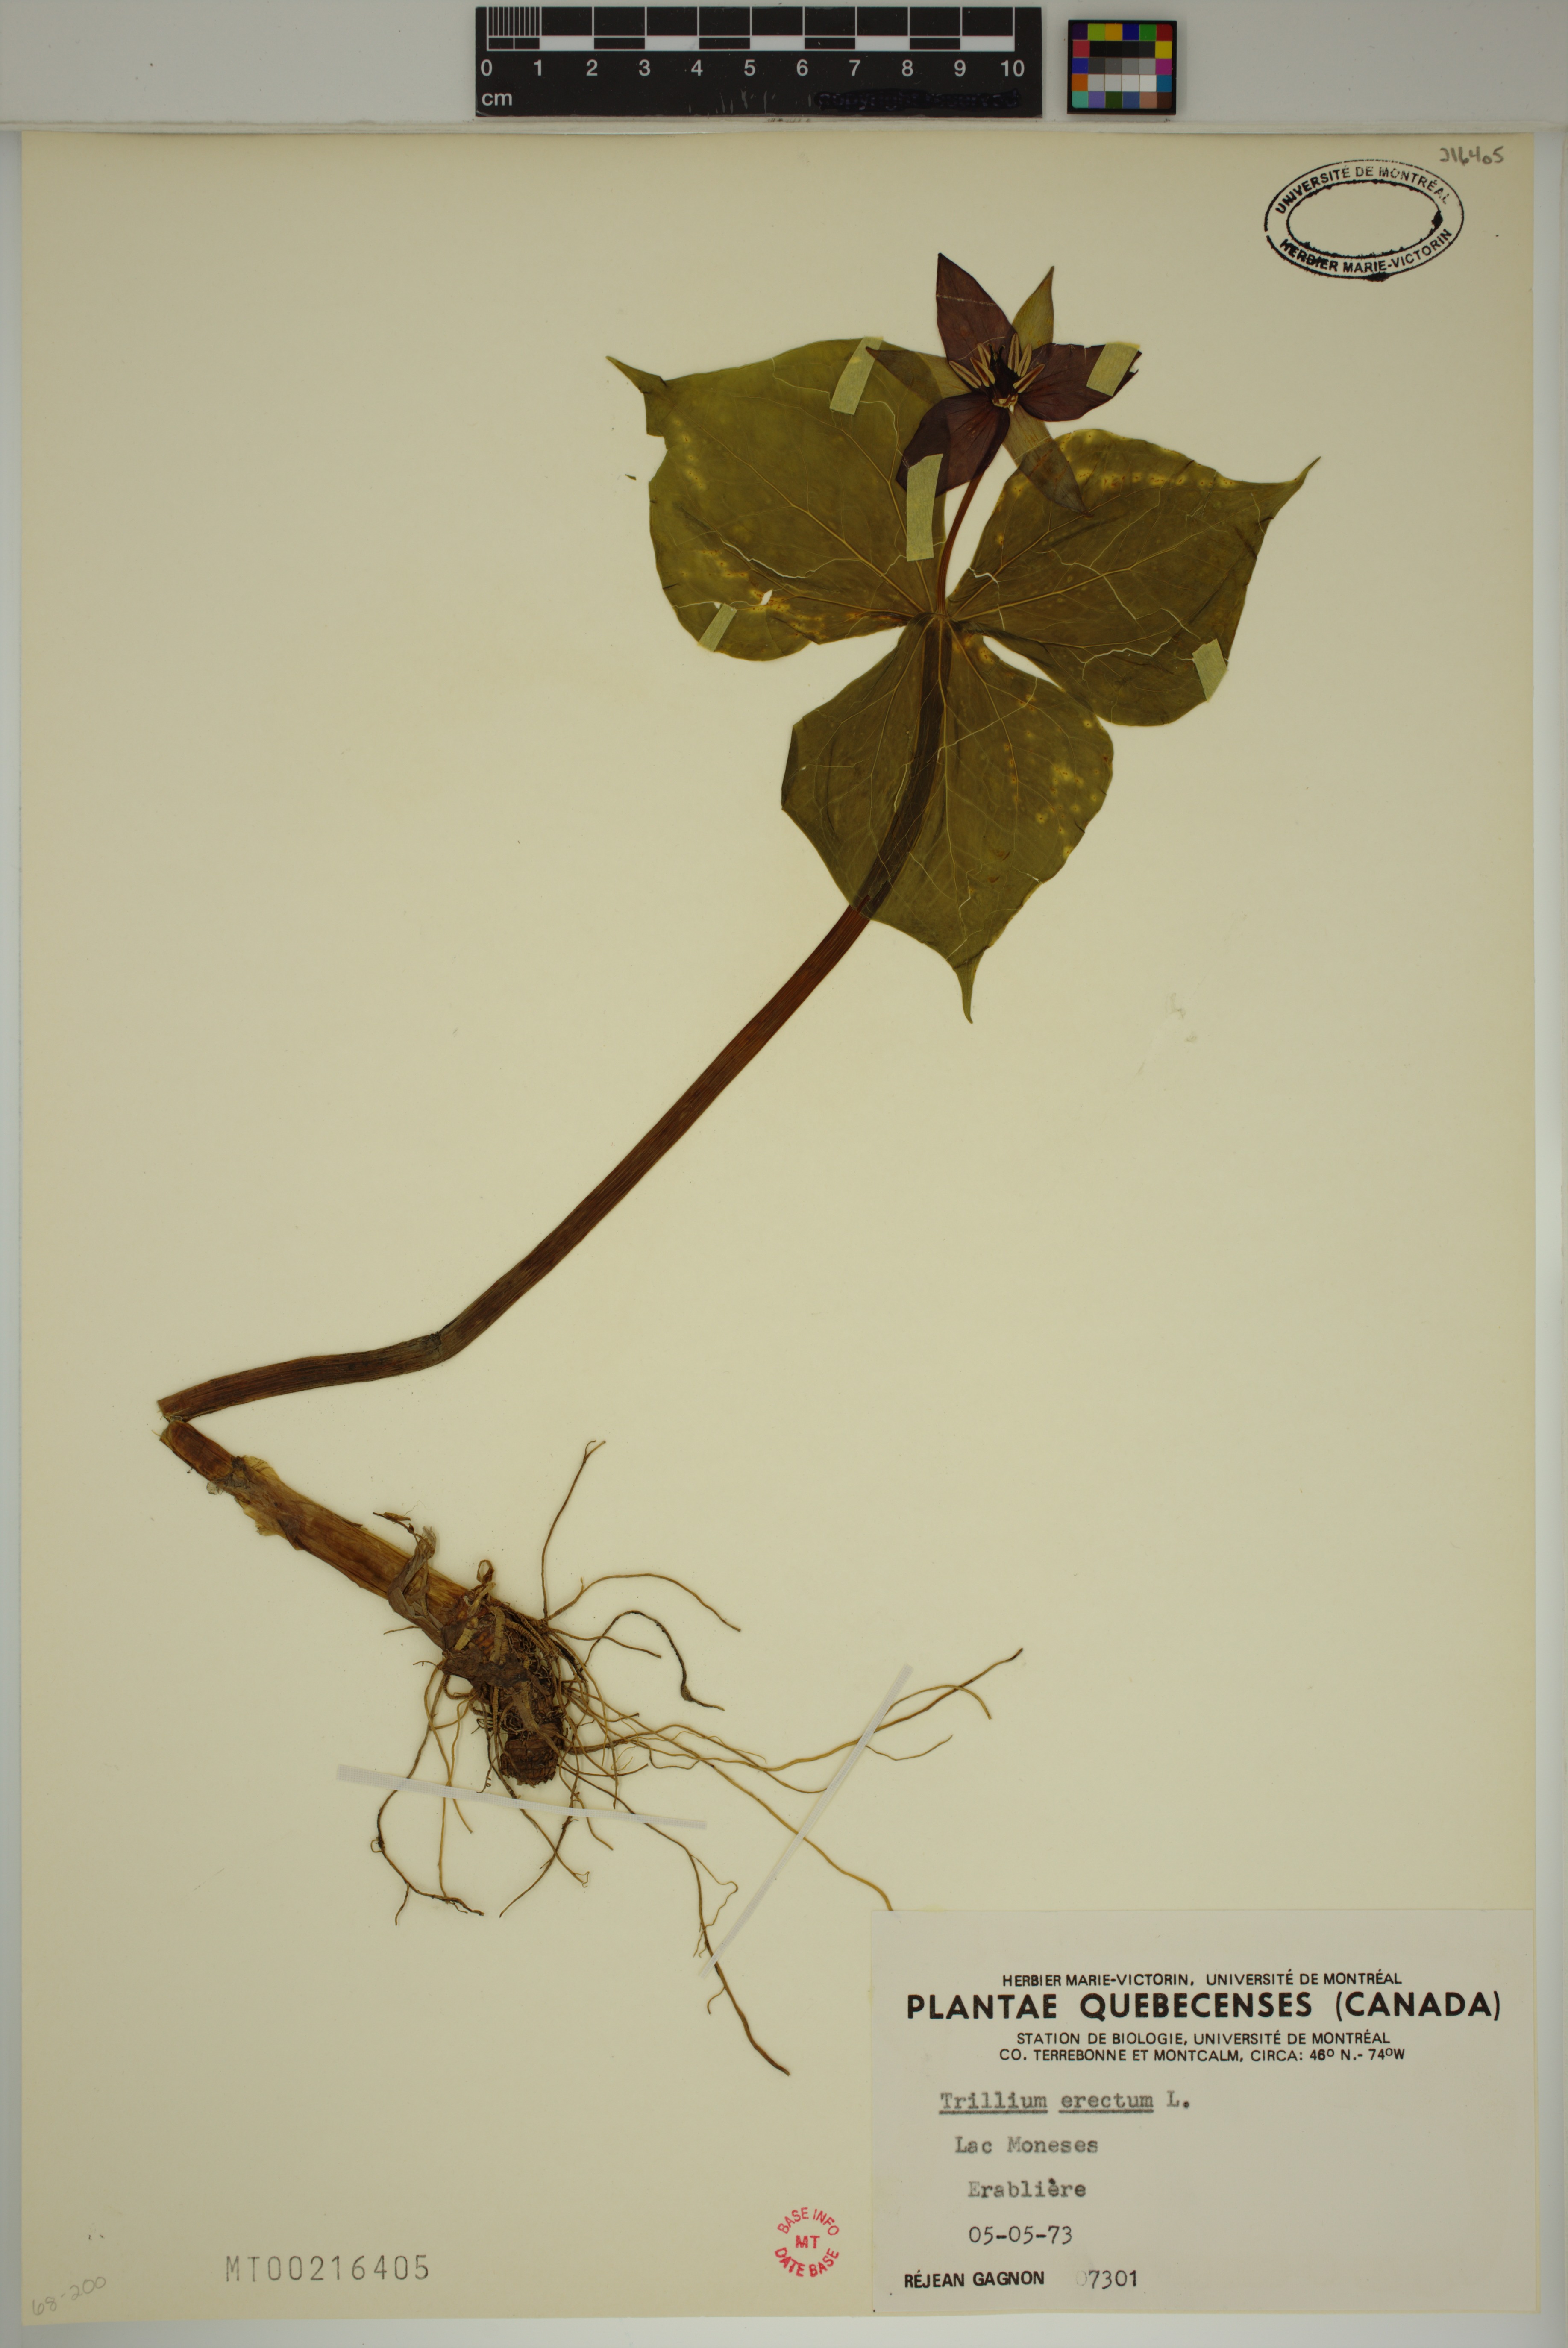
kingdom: Plantae
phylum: Tracheophyta
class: Liliopsida
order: Liliales
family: Melanthiaceae
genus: Trillium
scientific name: Trillium erectum
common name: Purple trillium
